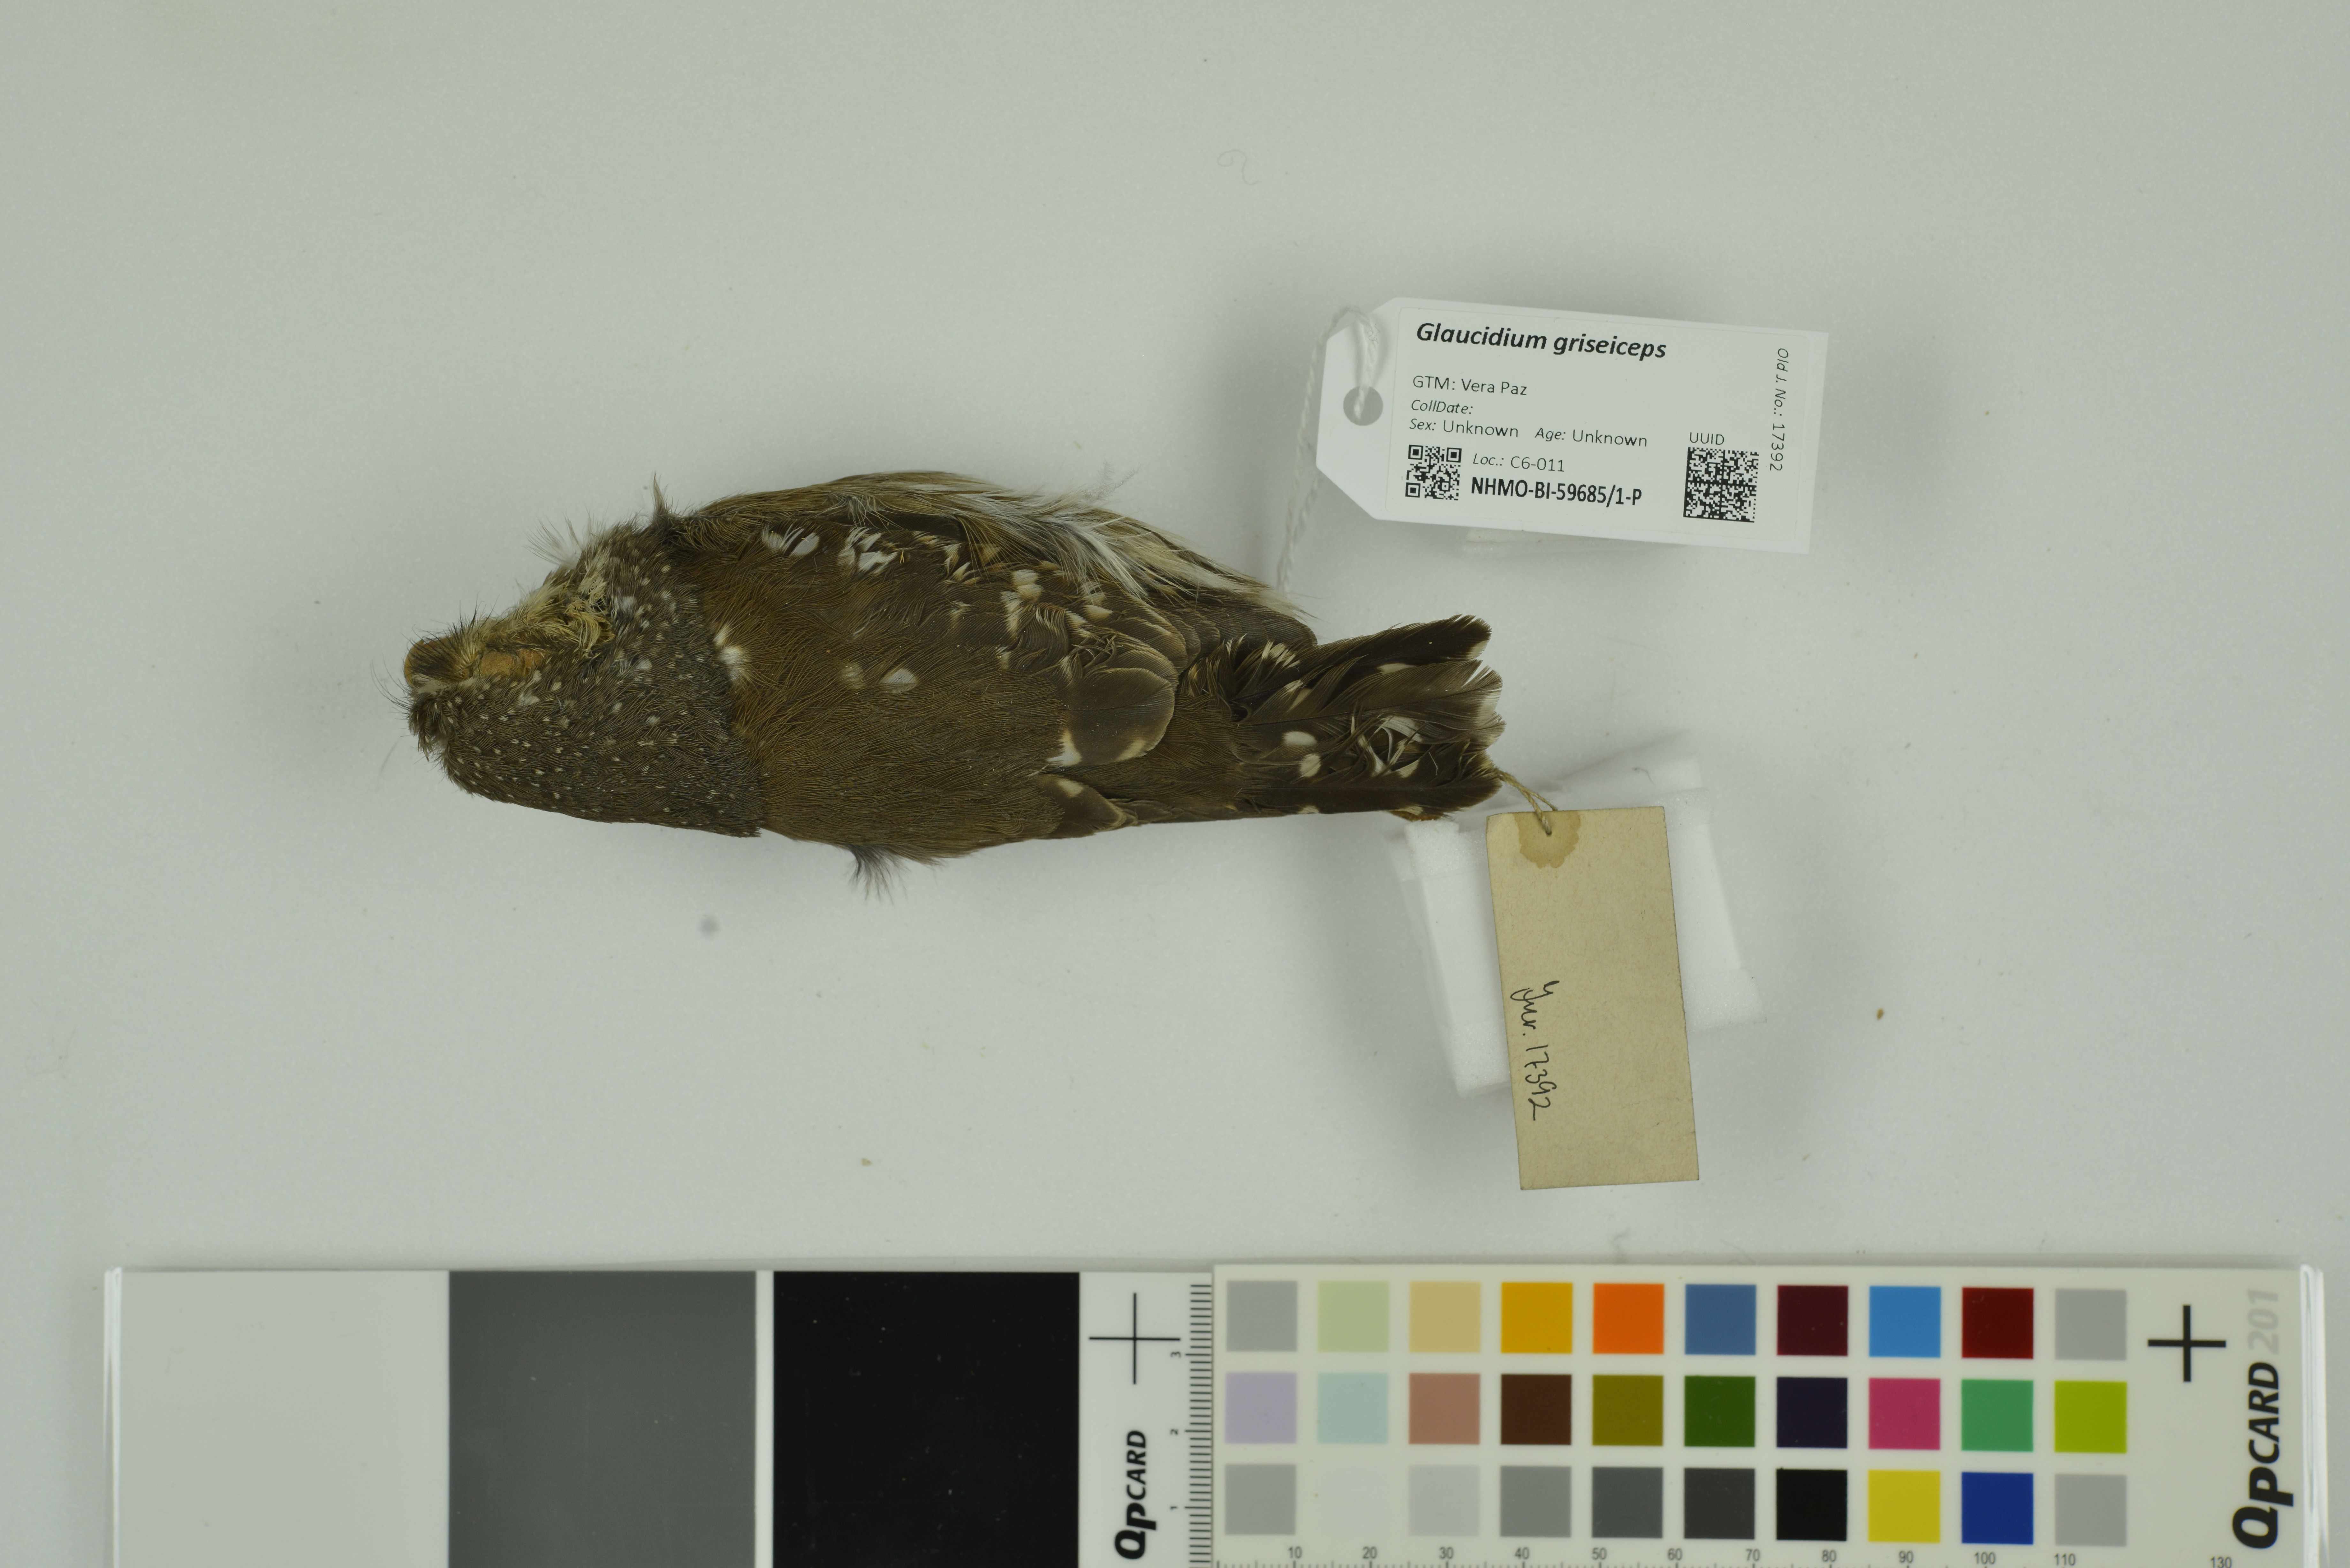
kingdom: Animalia
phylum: Chordata
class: Aves
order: Strigiformes
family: Strigidae
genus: Glaucidium
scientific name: Glaucidium griseiceps
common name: Central american pygmy-owl
